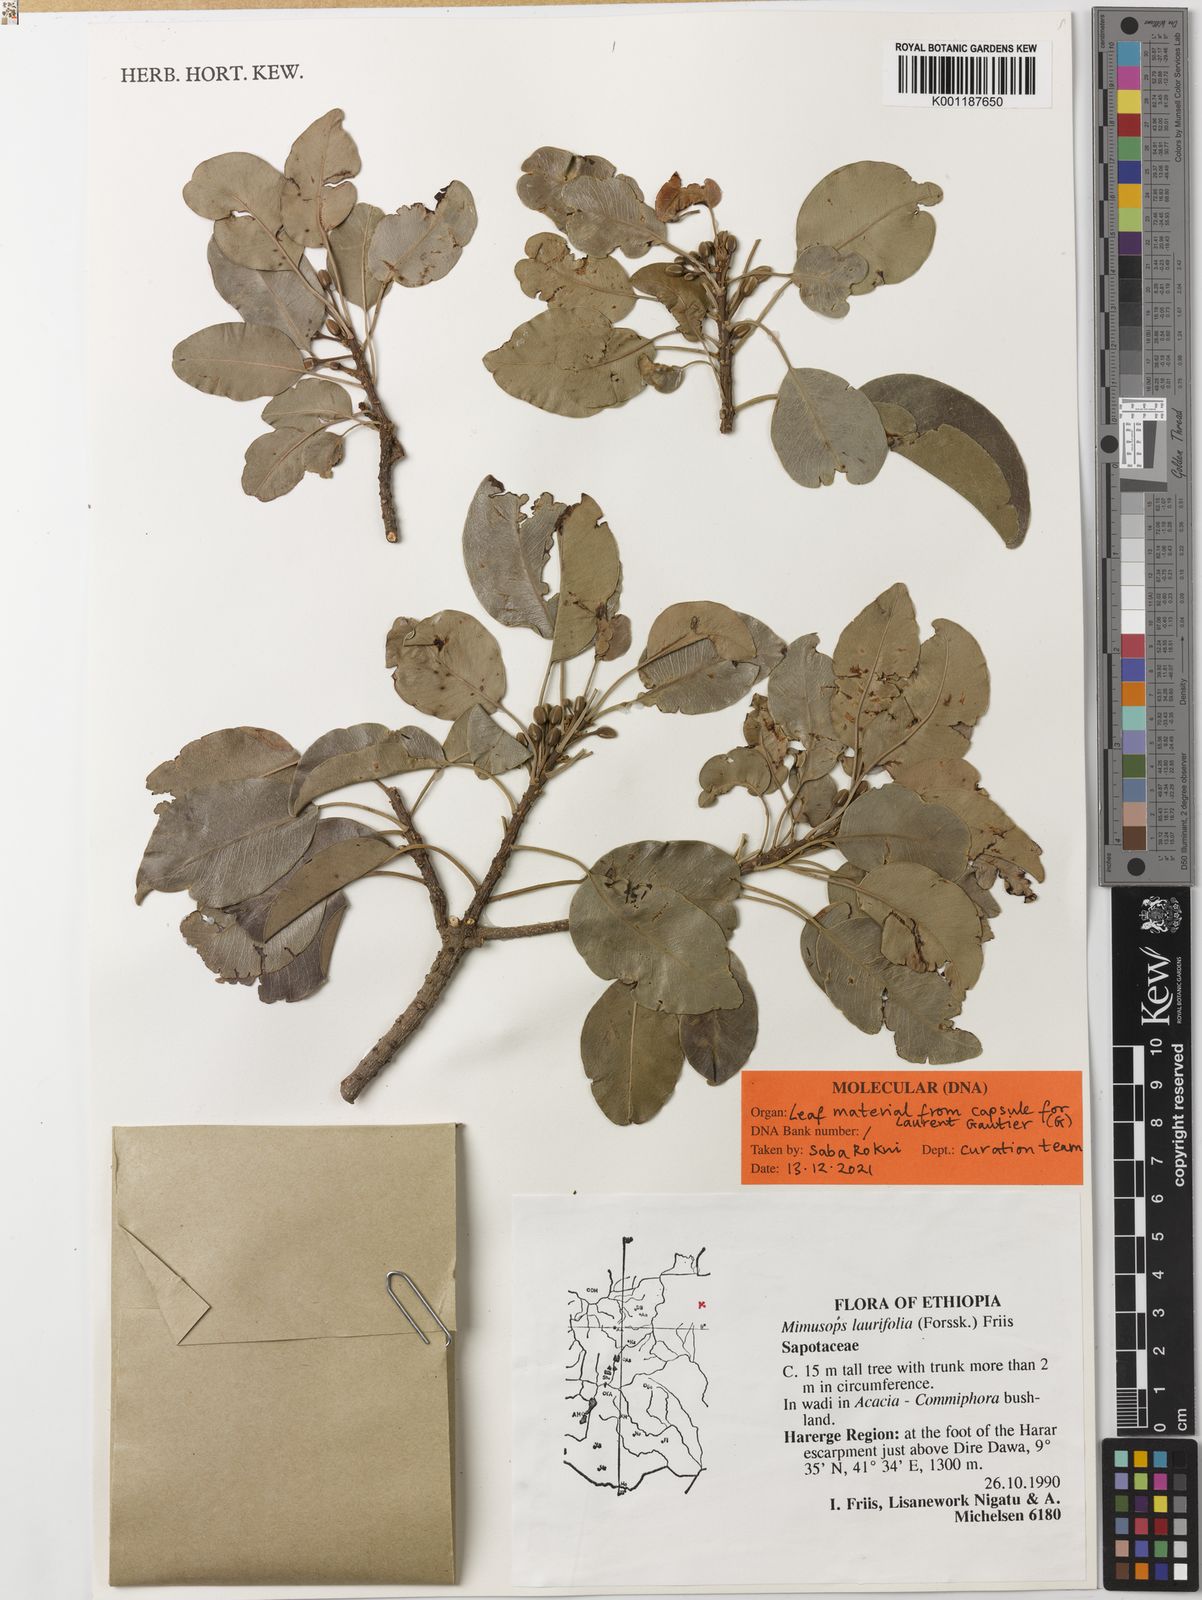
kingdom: Plantae
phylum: Tracheophyta
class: Magnoliopsida
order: Ericales
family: Sapotaceae
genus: Mimusops
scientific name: Mimusops laurifolia
